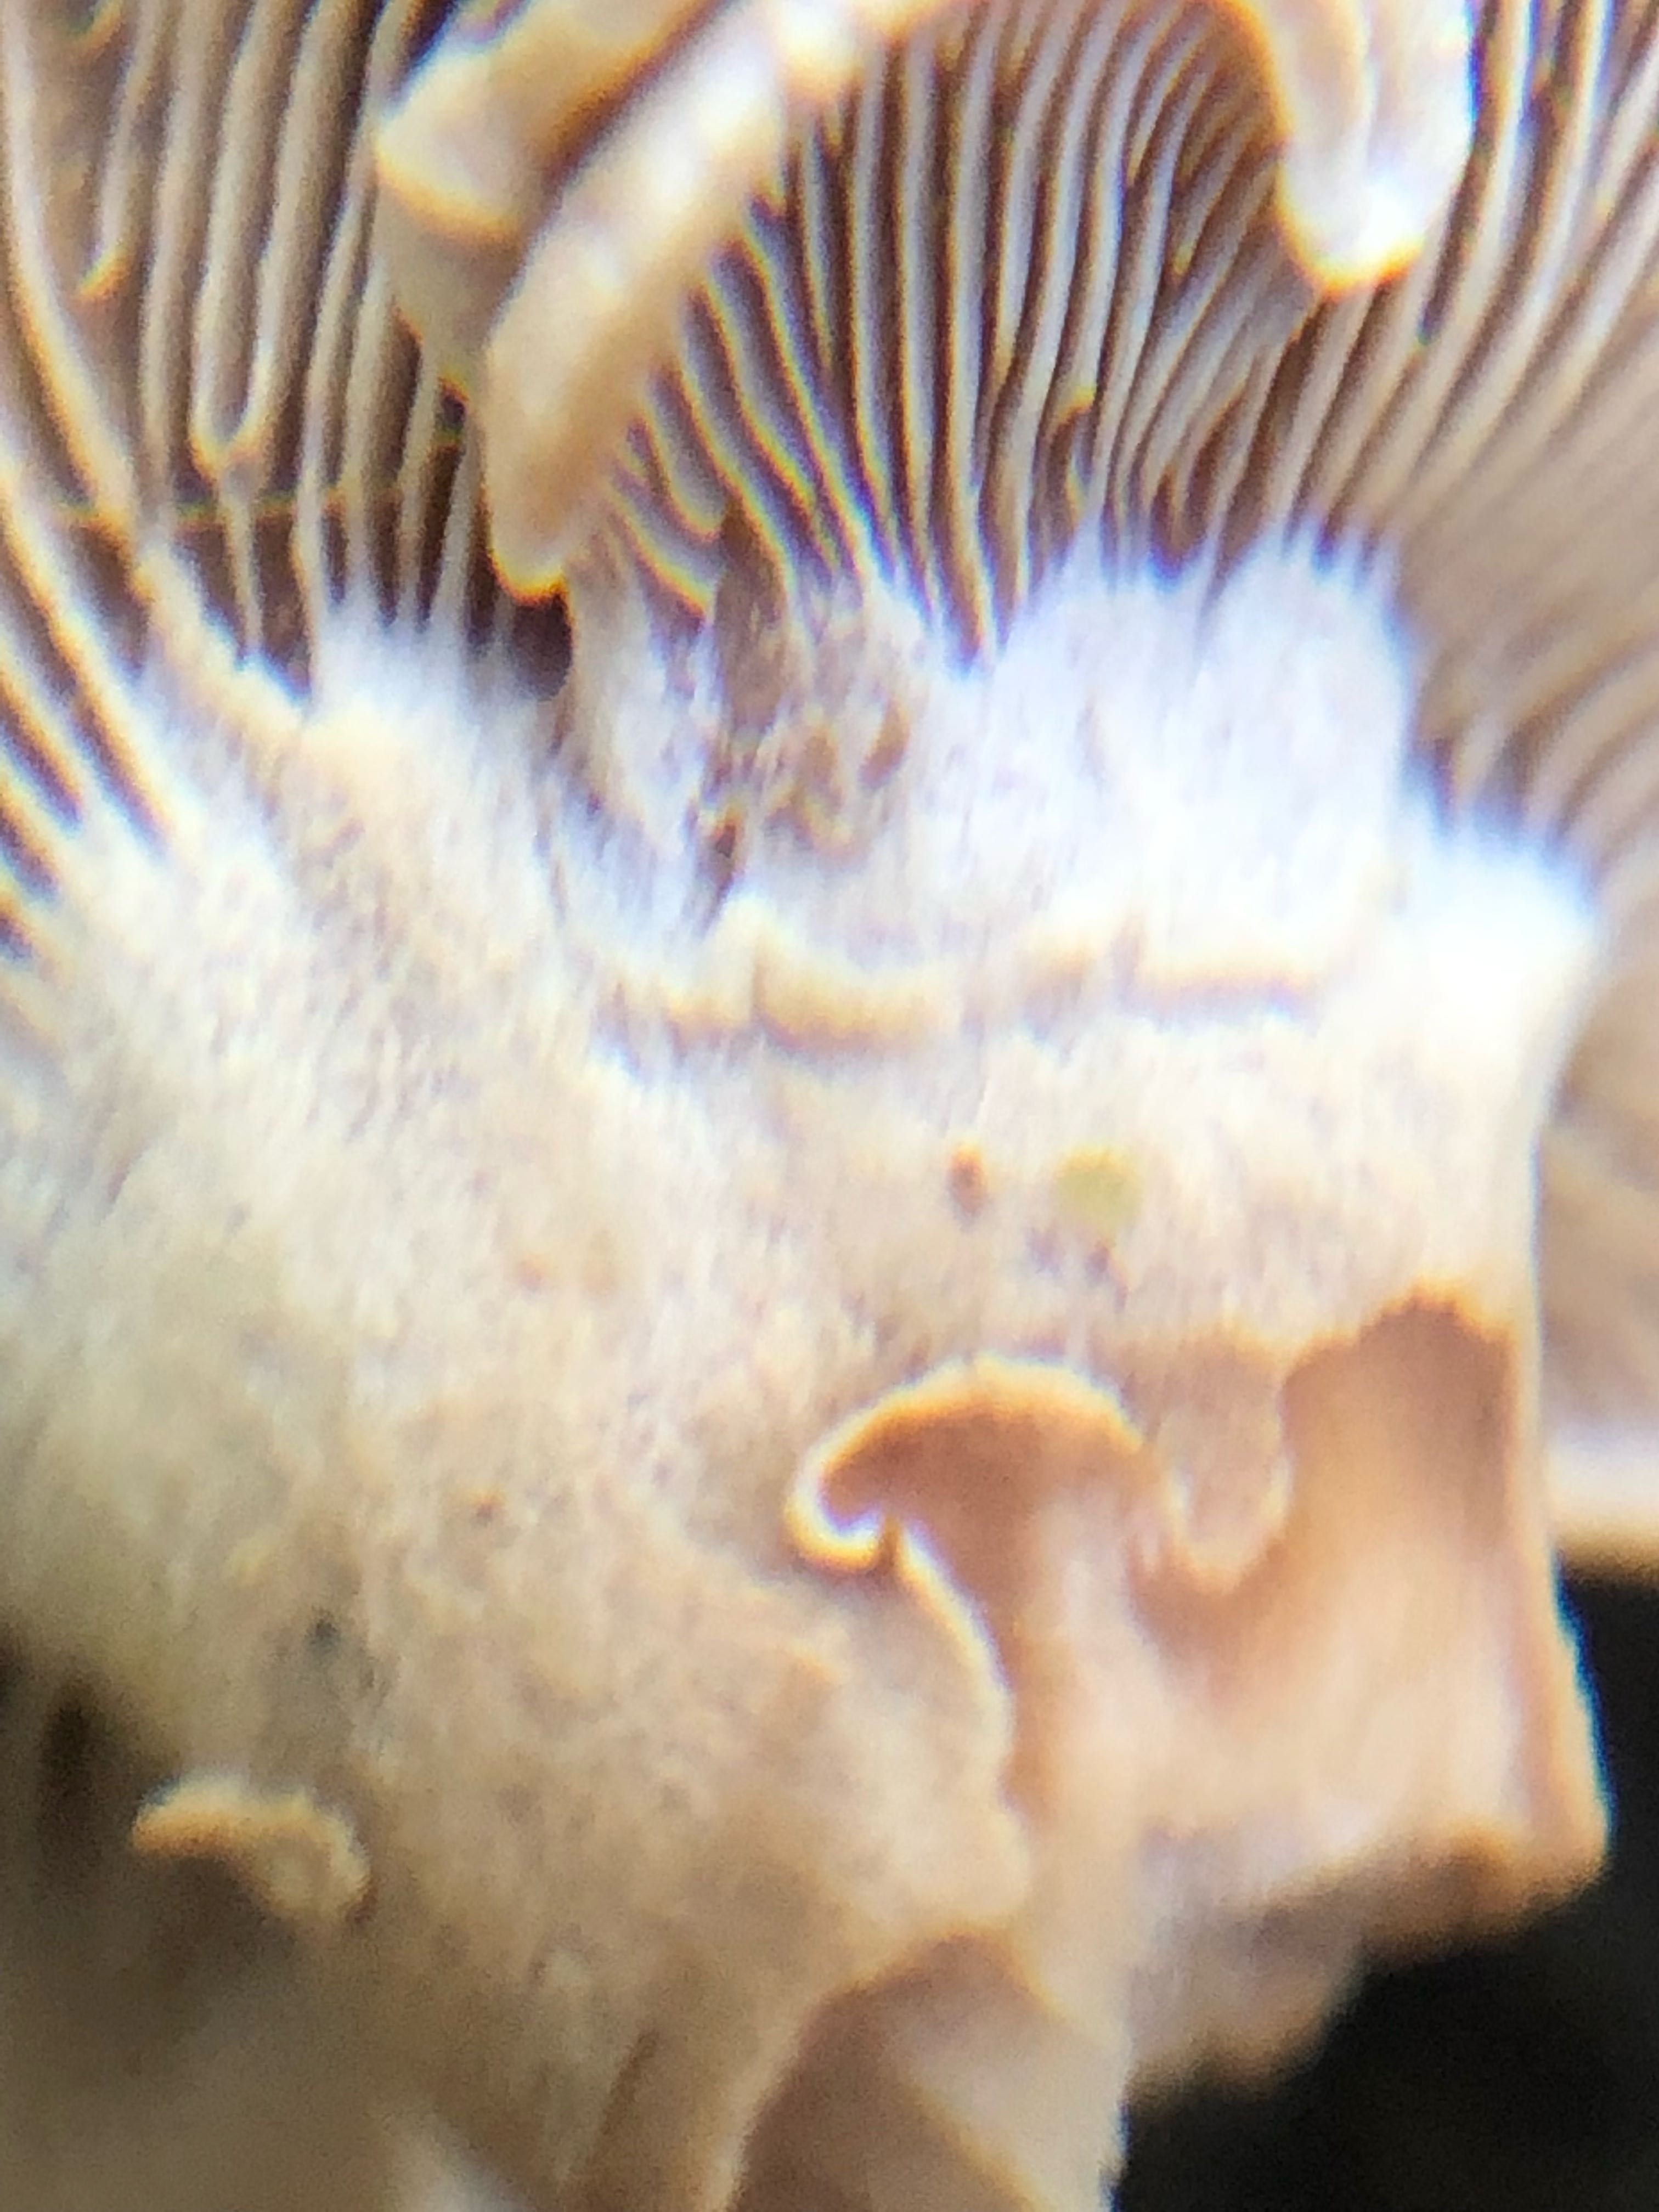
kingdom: Fungi
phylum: Basidiomycota
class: Agaricomycetes
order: Agaricales
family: Mycenaceae
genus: Panellus
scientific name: Panellus stipticus
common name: kliddet epaulethat
